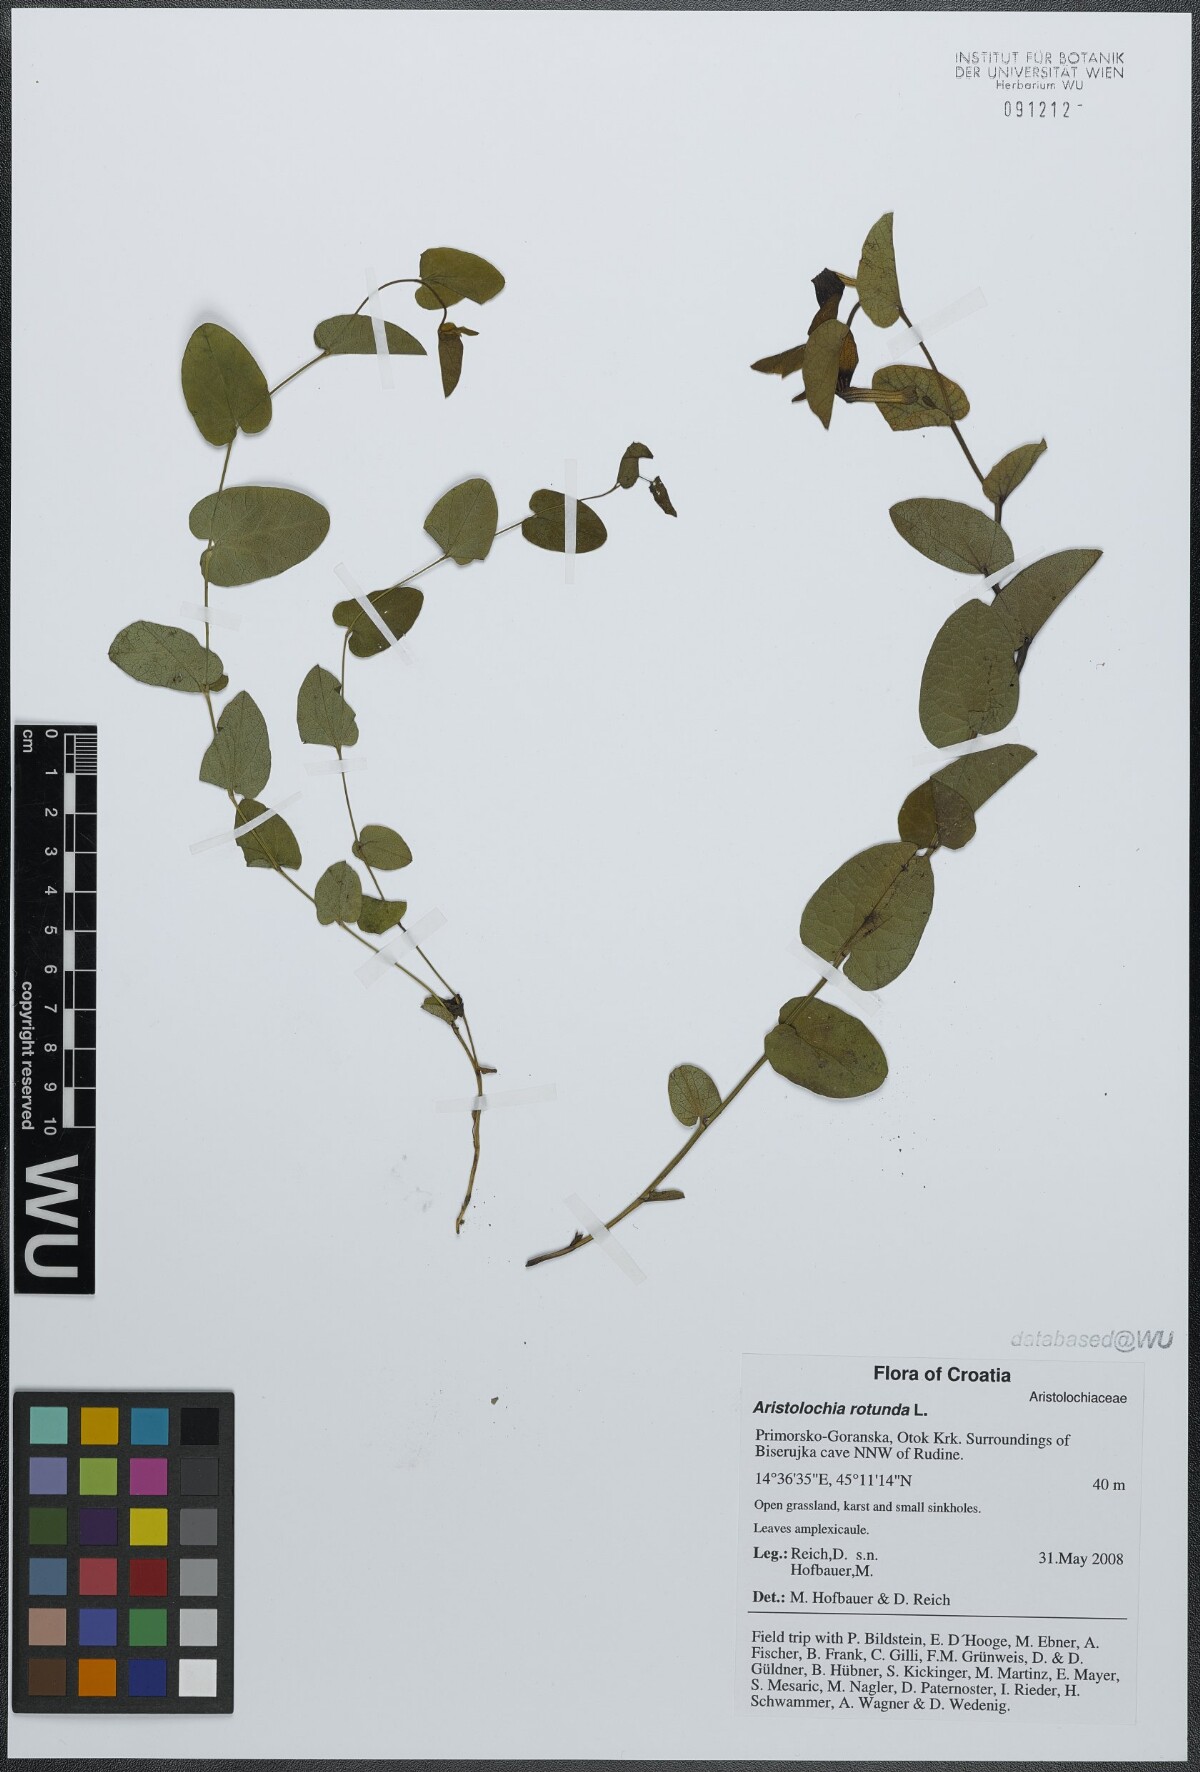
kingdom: Plantae
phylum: Tracheophyta
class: Magnoliopsida
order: Piperales
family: Aristolochiaceae
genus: Aristolochia
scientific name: Aristolochia rotunda
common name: Smearwort
